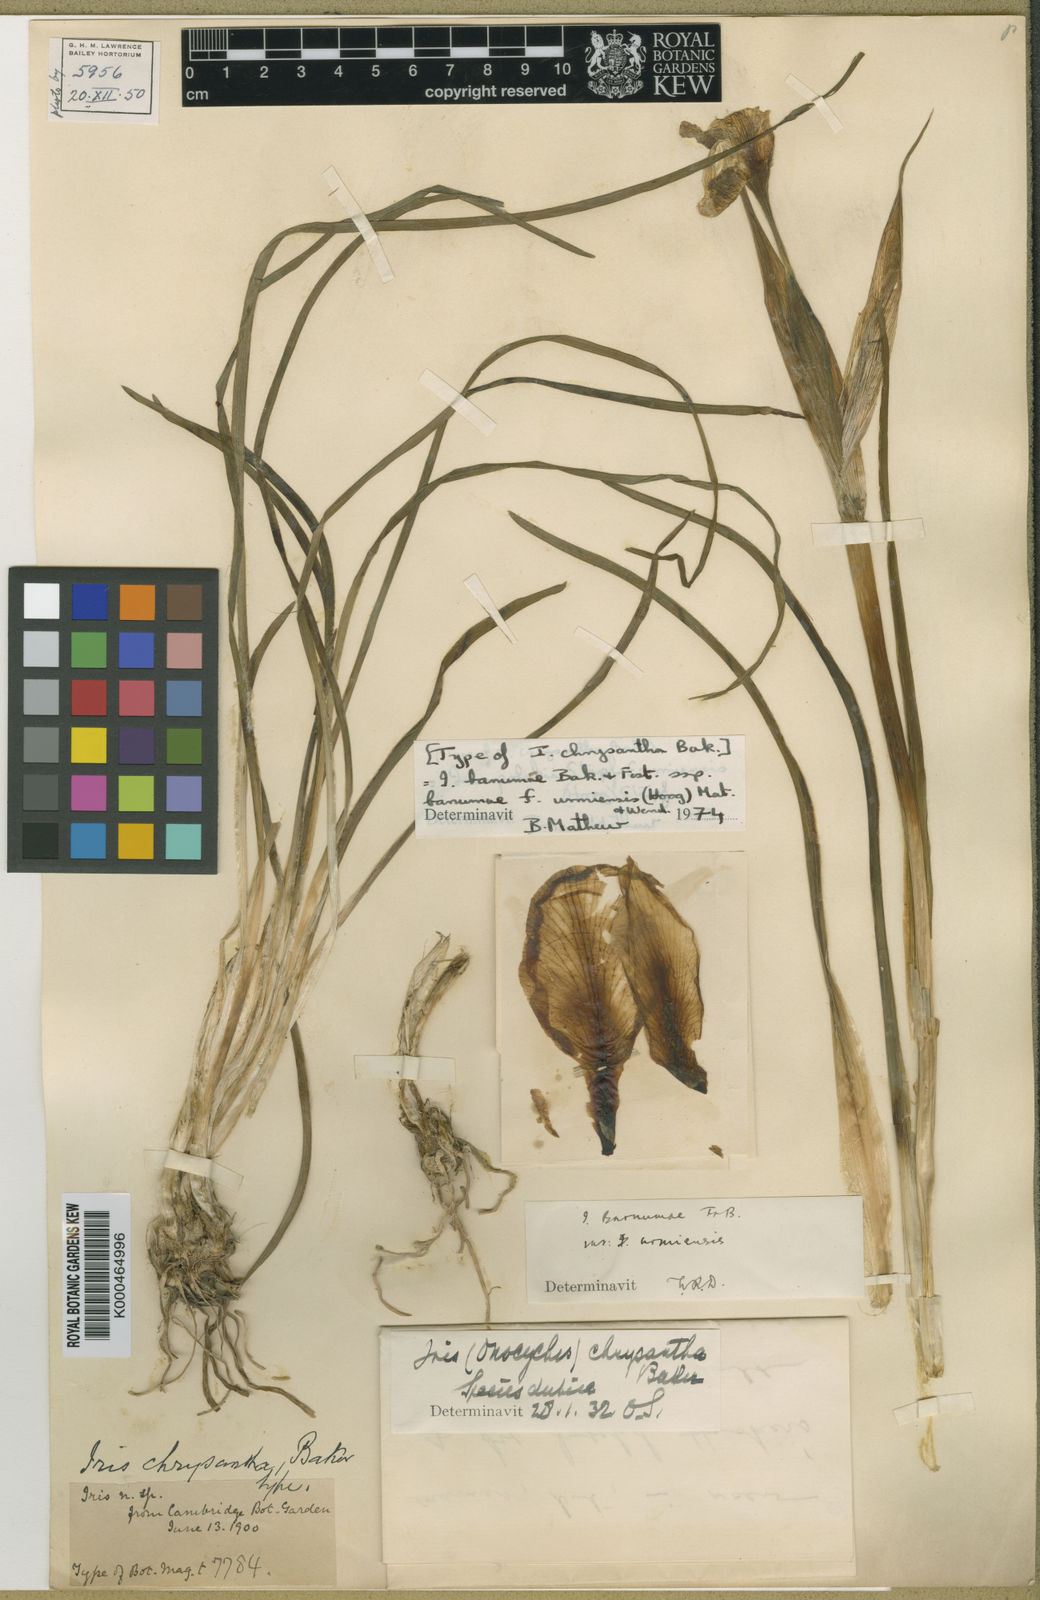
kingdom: Plantae
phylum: Tracheophyta
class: Liliopsida
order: Asparagales
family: Iridaceae
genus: Iris
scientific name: Iris urmiensis
